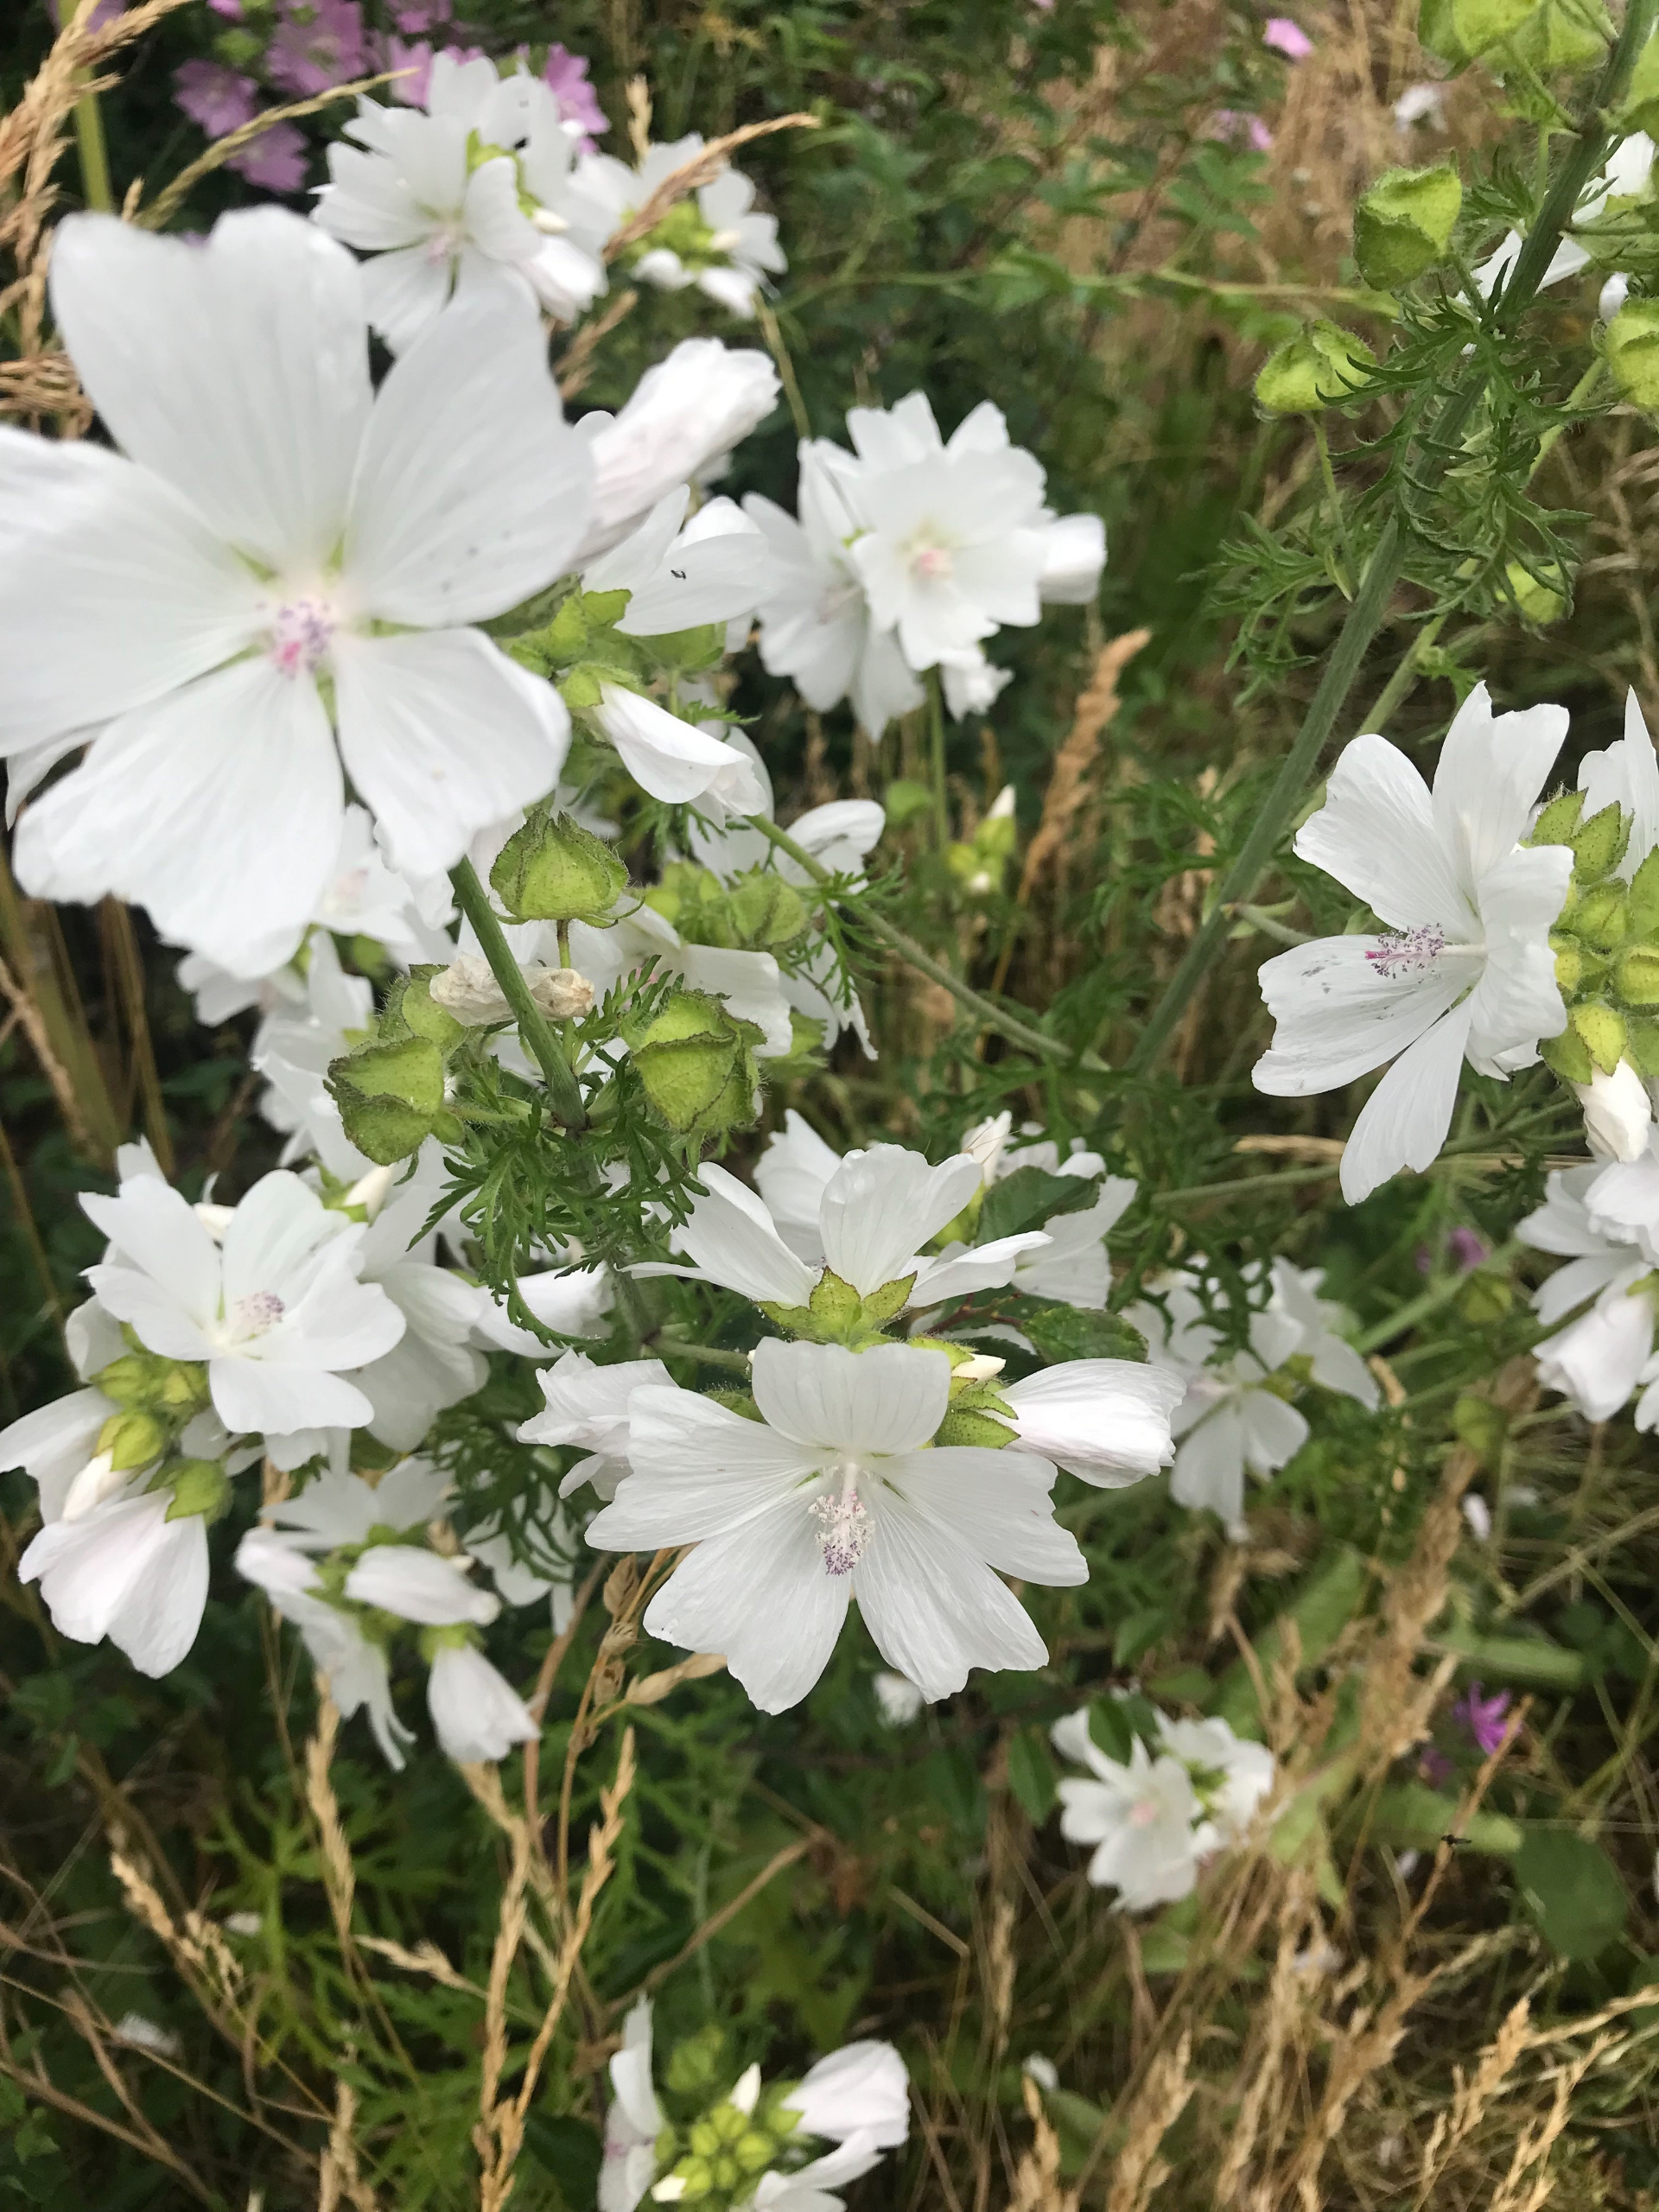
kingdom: Plantae
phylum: Tracheophyta
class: Magnoliopsida
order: Malvales
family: Malvaceae
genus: Malva
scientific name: Malva moschata
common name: Moskus-katost
